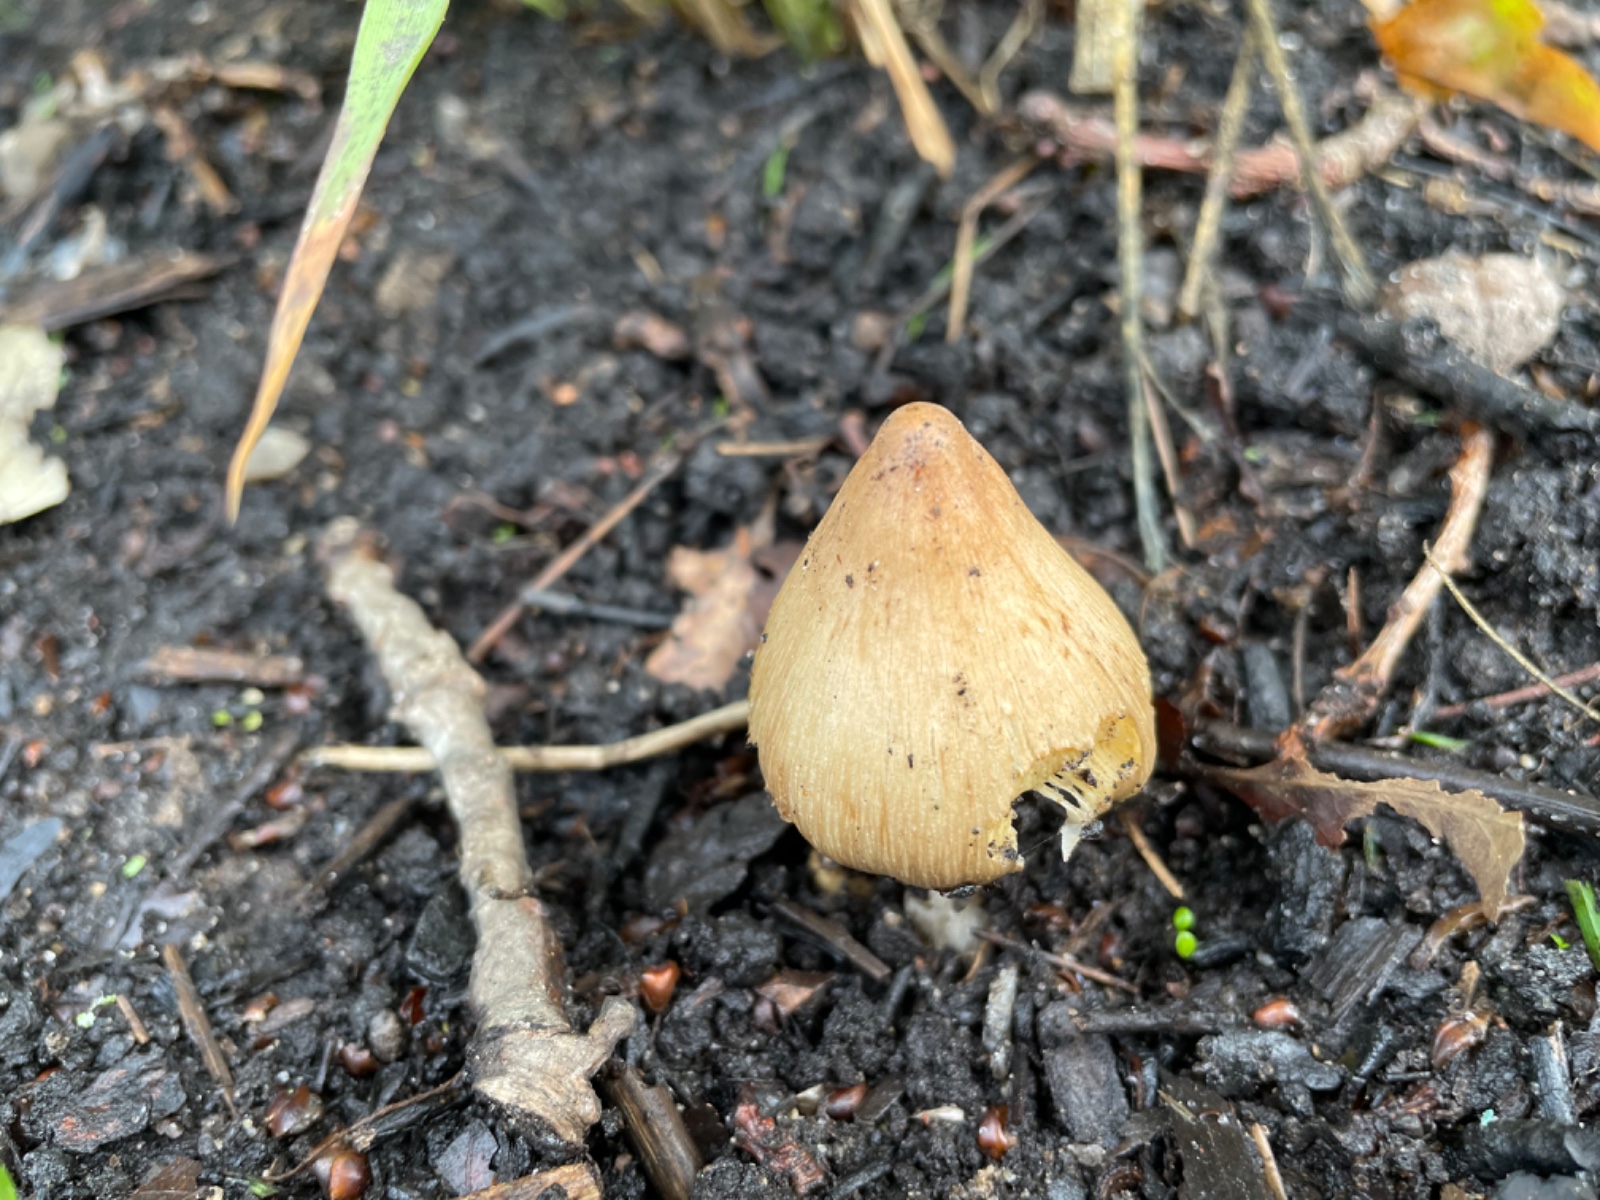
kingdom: Fungi
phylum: Basidiomycota
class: Agaricomycetes
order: Agaricales
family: Inocybaceae
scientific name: Inocybaceae
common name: trævlhatfamilien
